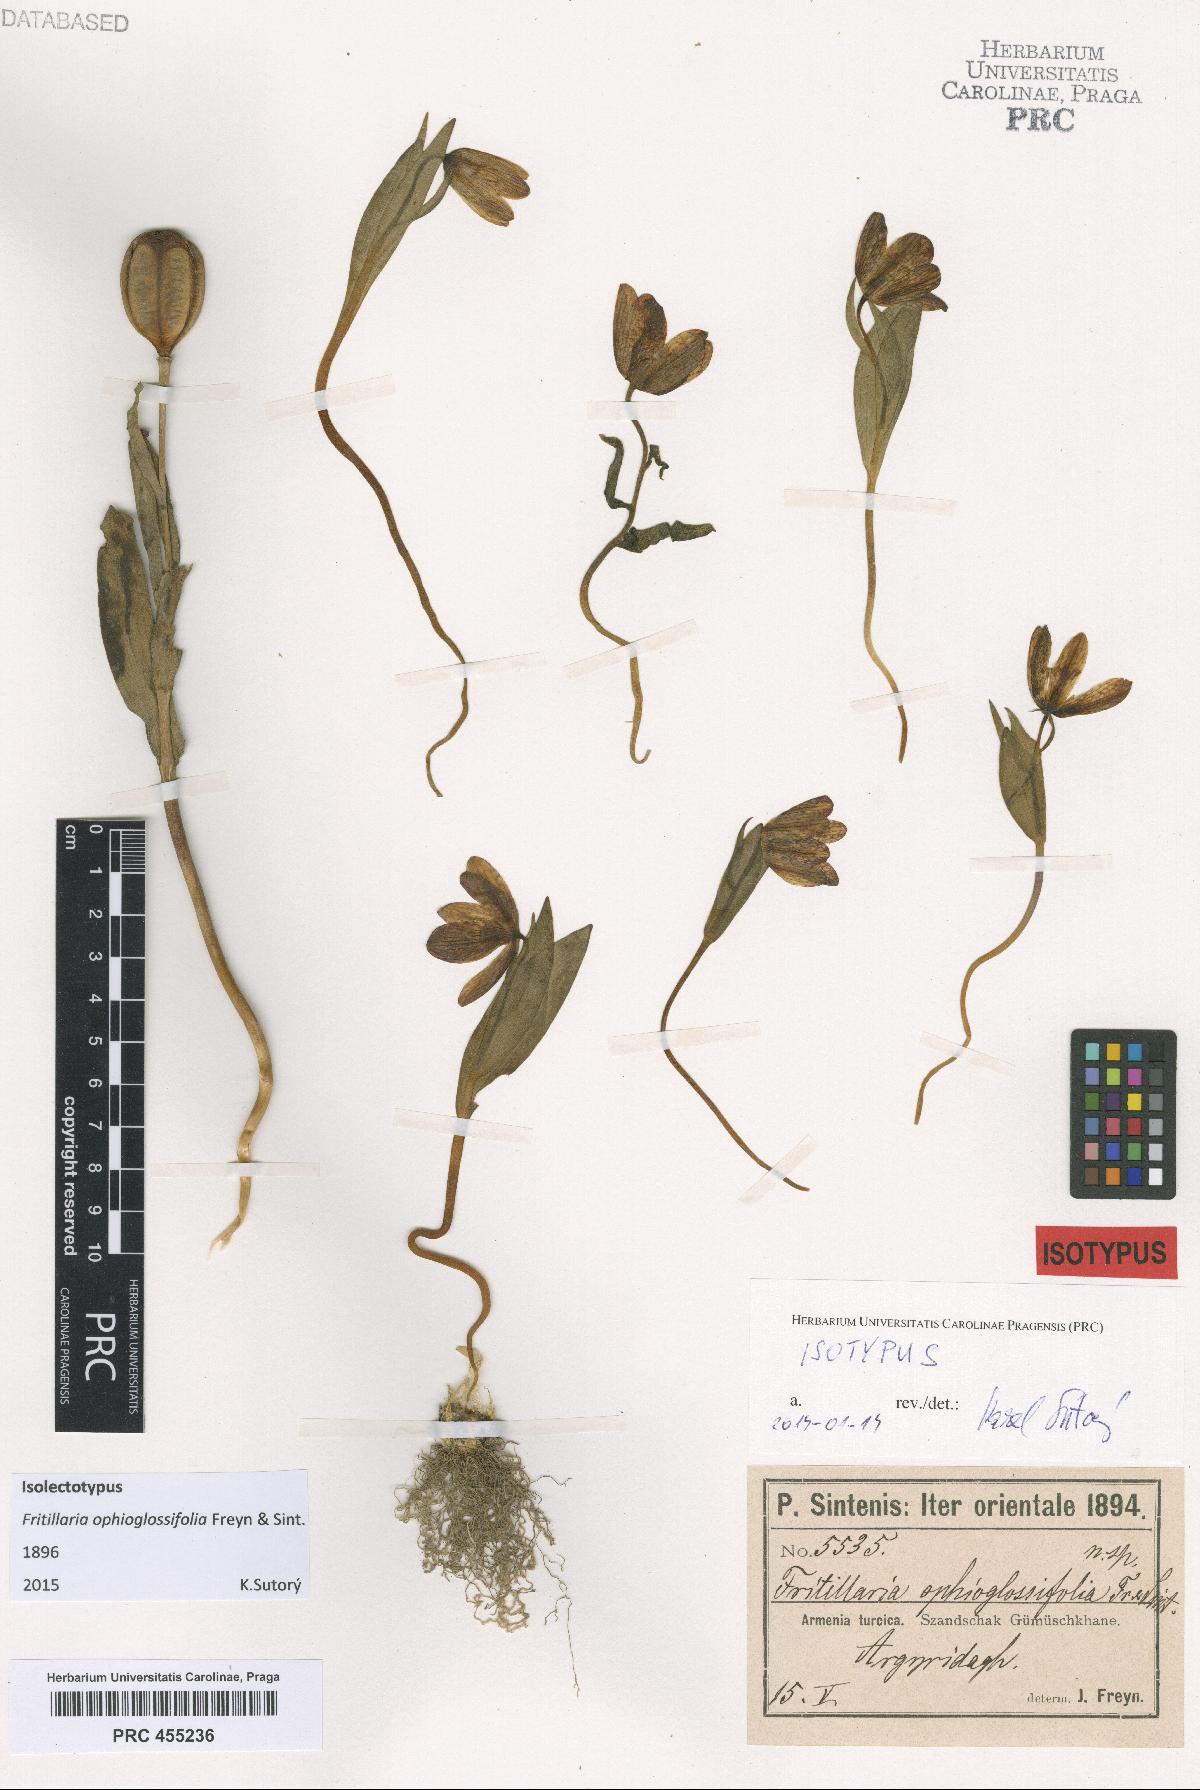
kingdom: Plantae
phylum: Tracheophyta
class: Liliopsida
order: Liliales
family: Liliaceae
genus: Fritillaria
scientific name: Fritillaria crassifolia
